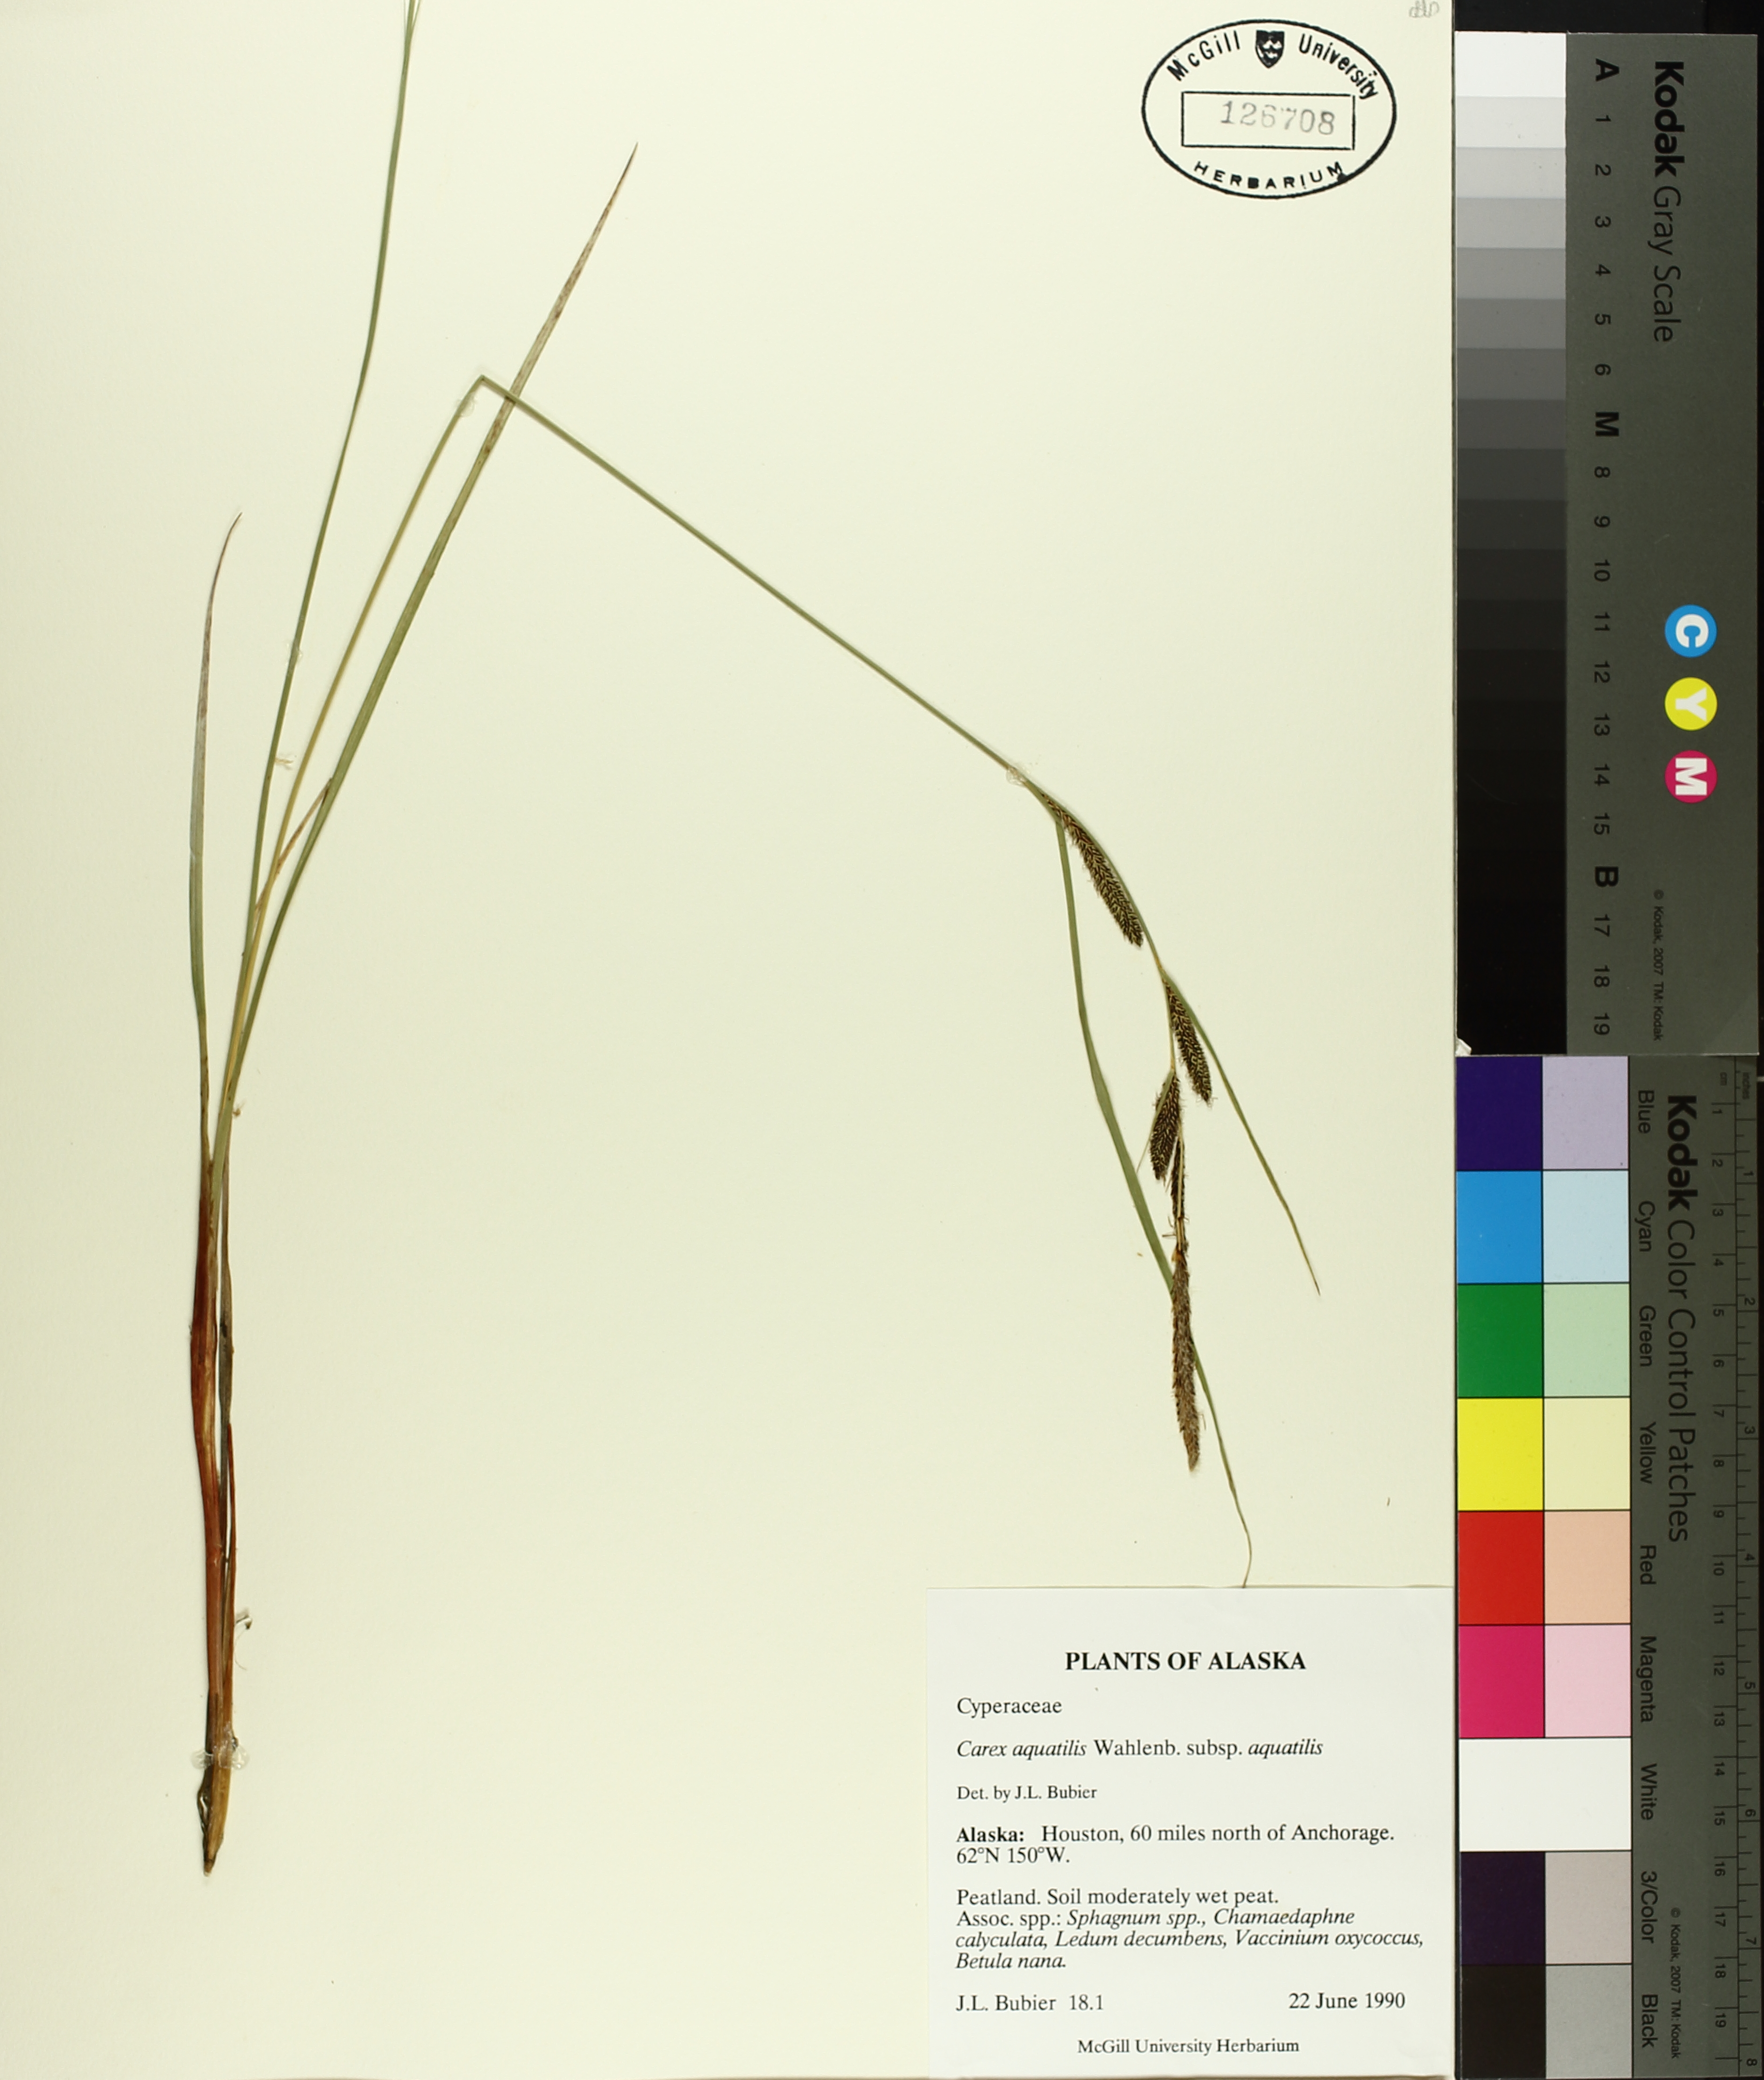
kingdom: Plantae
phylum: Tracheophyta
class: Liliopsida
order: Poales
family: Cyperaceae
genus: Carex
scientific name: Carex aquatilis
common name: Water sedge
